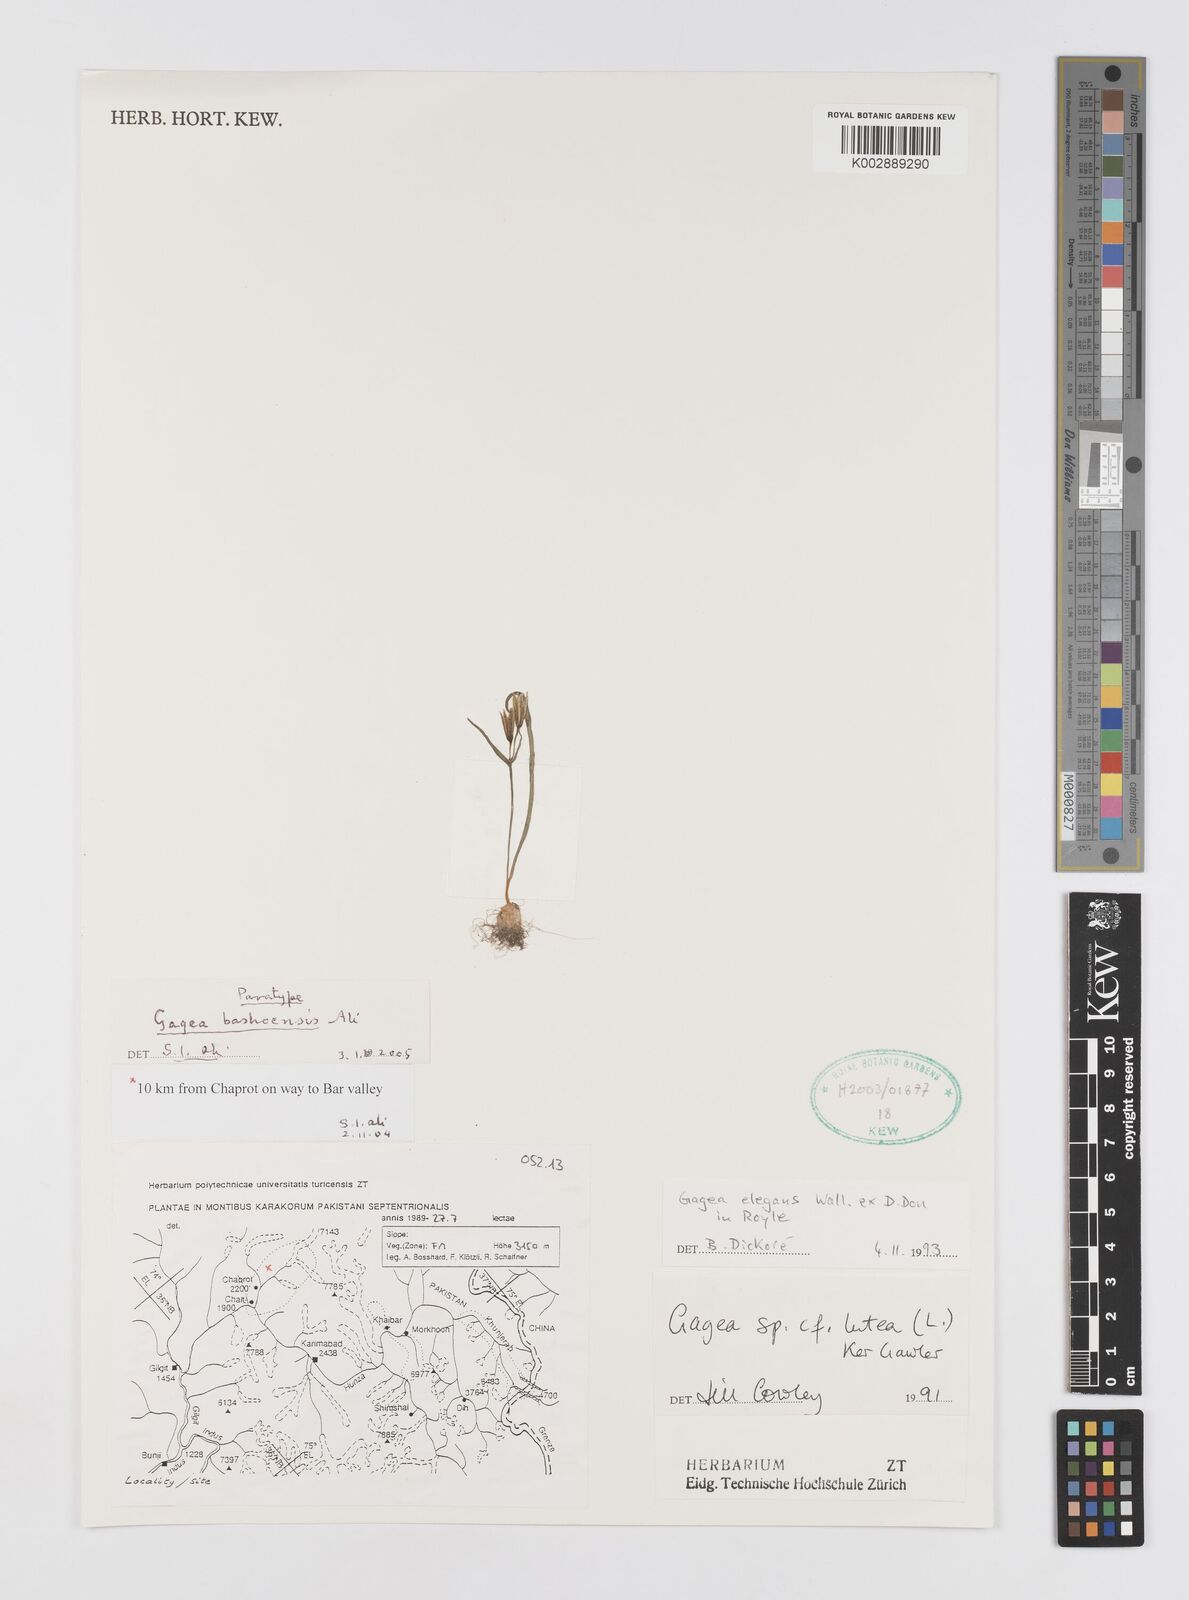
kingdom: Plantae
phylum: Tracheophyta
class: Liliopsida
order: Liliales
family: Liliaceae
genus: Gagea
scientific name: Gagea bashoensis
